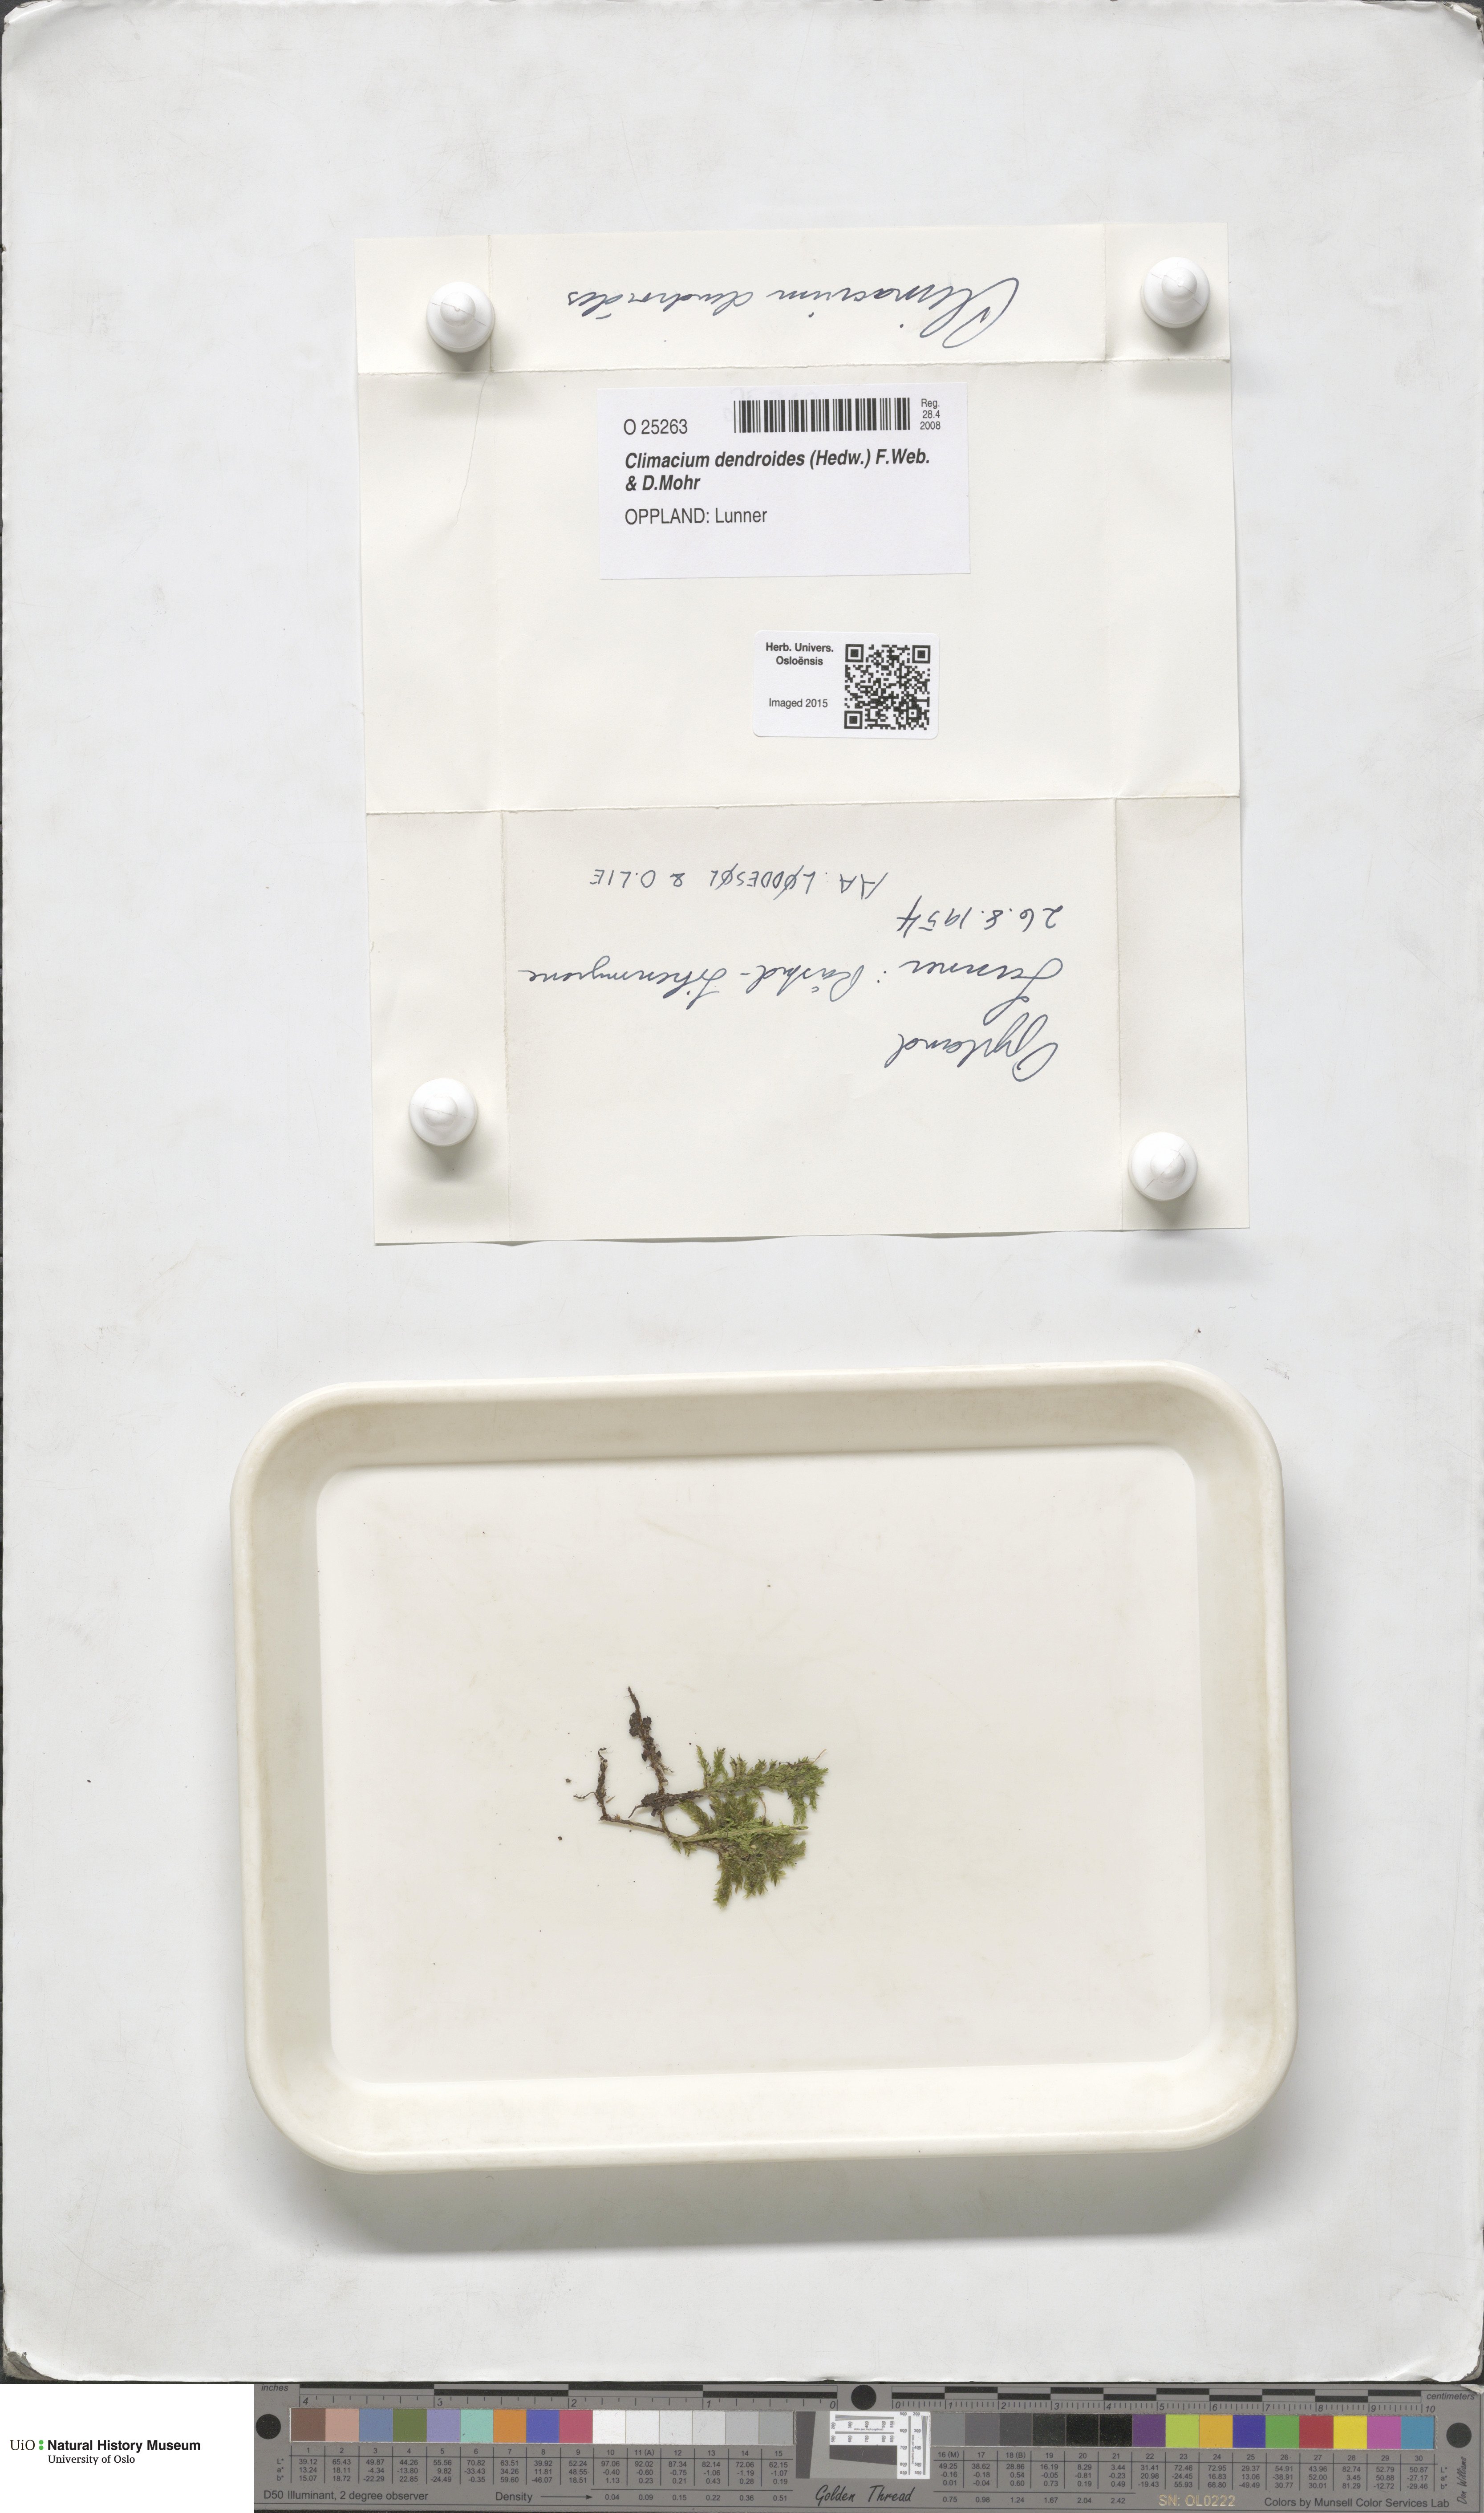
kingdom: Plantae
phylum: Bryophyta
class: Bryopsida
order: Hypnales
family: Climaciaceae
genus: Climacium
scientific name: Climacium dendroides
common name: Northern tree moss
